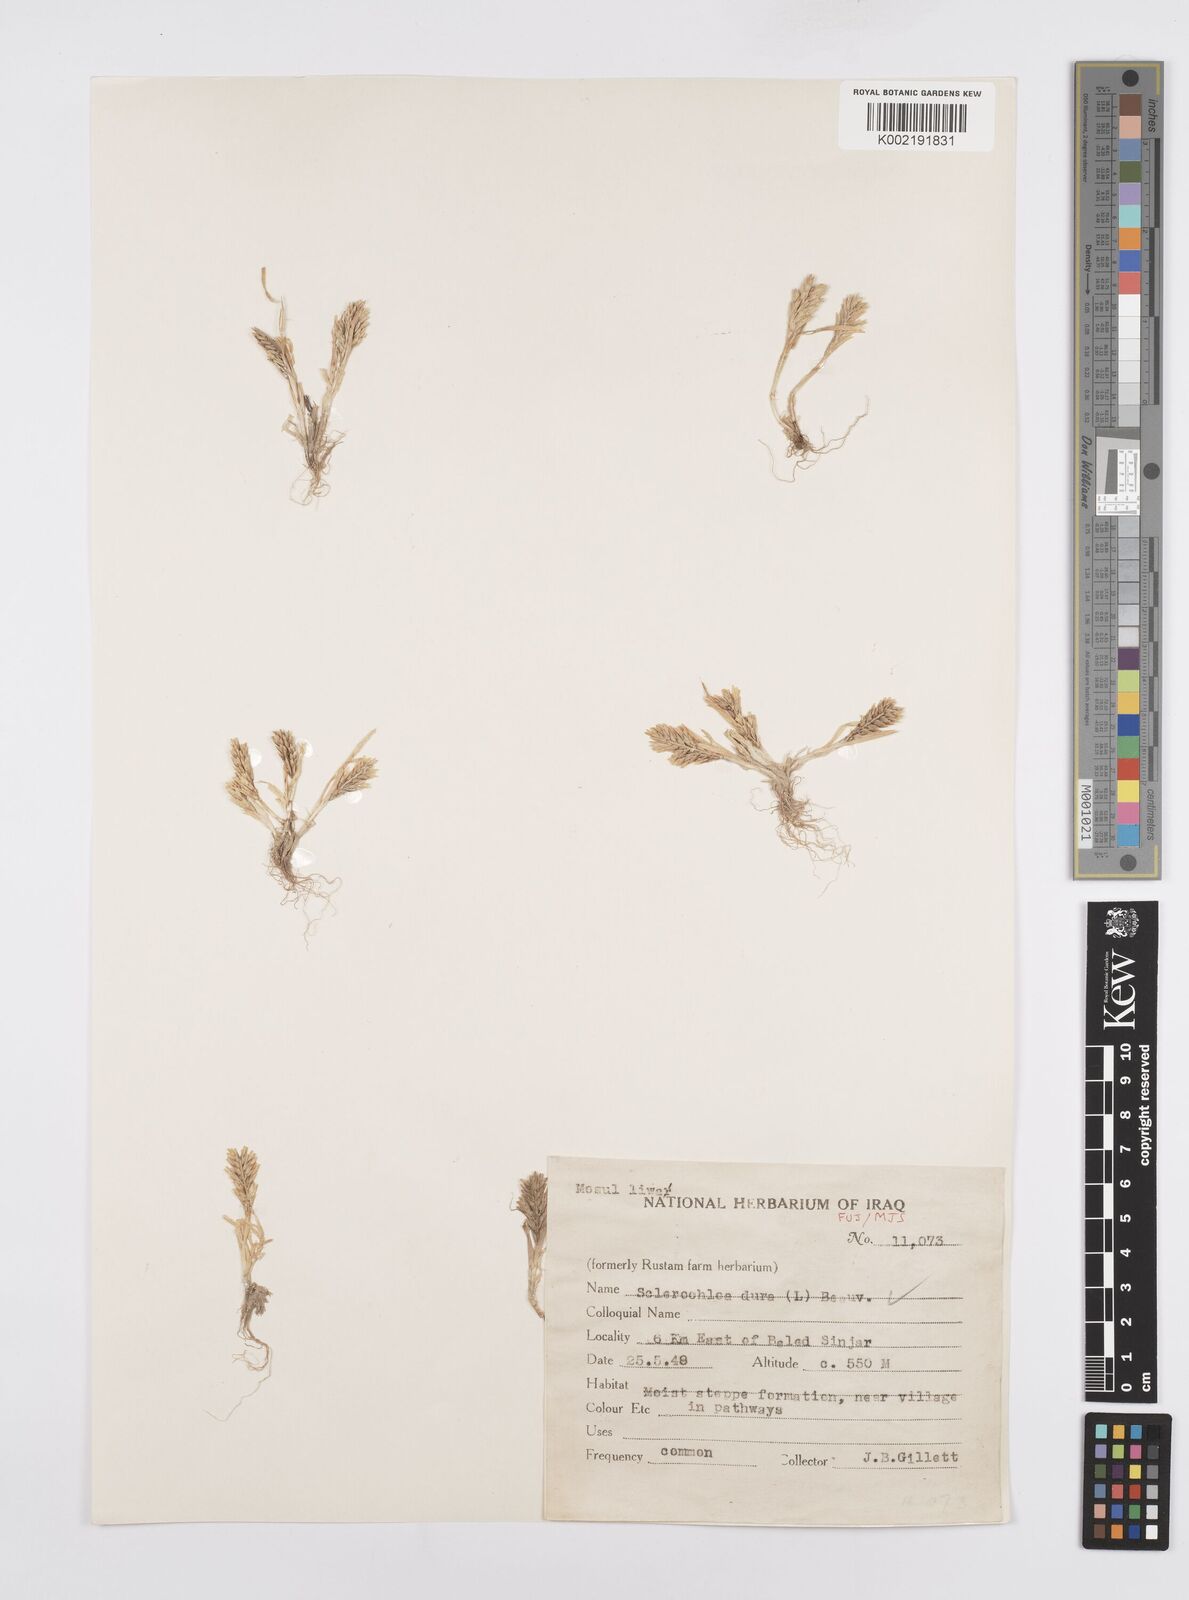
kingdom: Plantae
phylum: Tracheophyta
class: Liliopsida
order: Poales
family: Poaceae
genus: Sclerochloa
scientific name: Sclerochloa dura
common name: Common hardgrass
